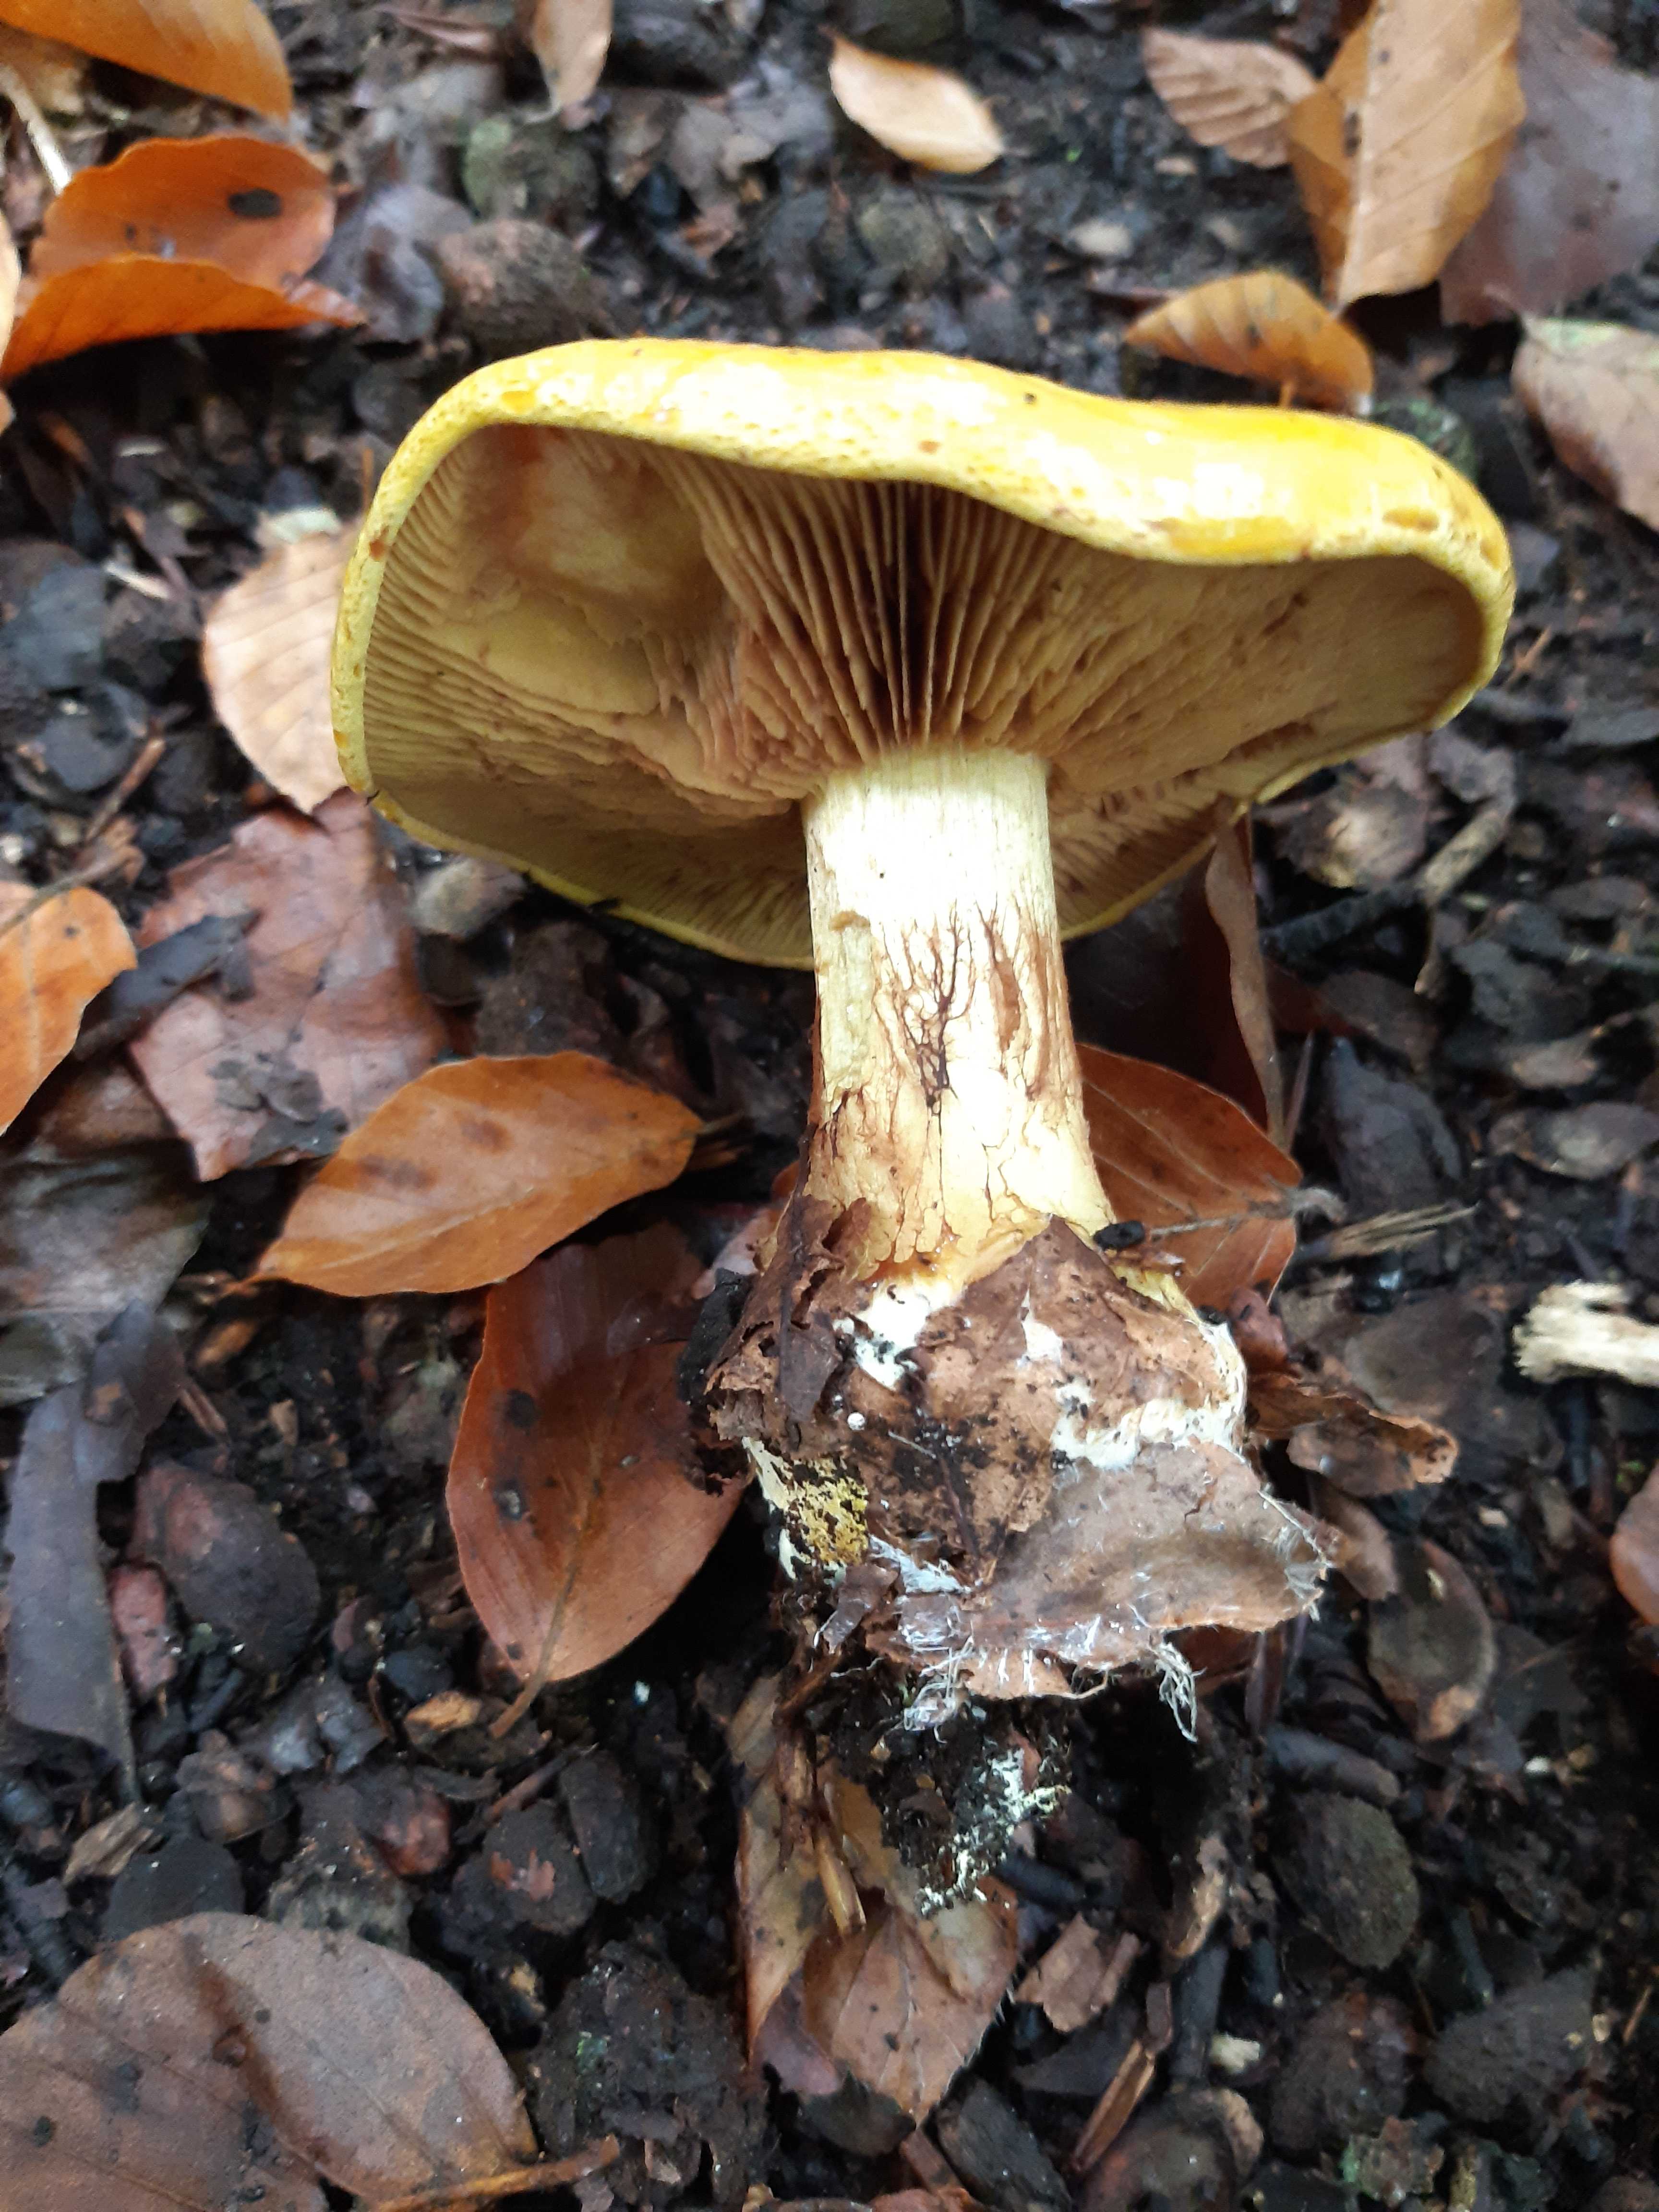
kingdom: Fungi
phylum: Basidiomycota
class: Agaricomycetes
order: Agaricales
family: Cortinariaceae
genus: Calonarius
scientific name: Calonarius olearioides
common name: safran-slørhat
